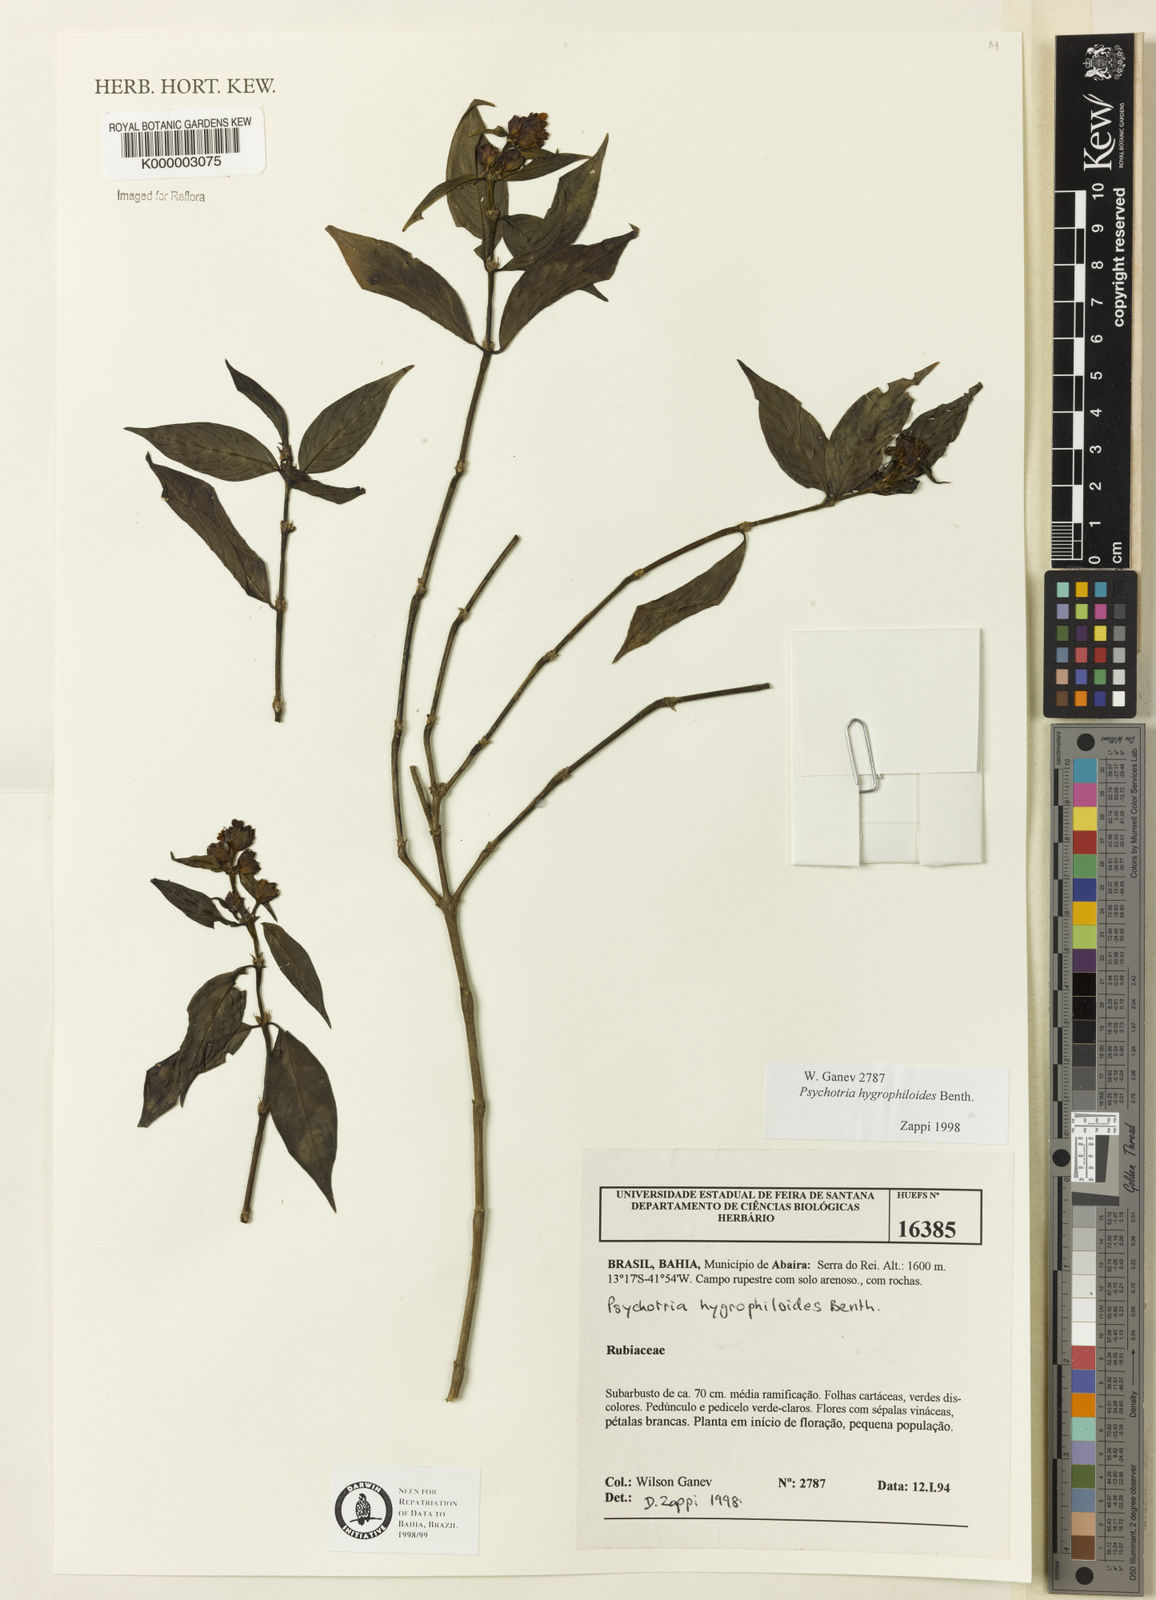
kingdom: Plantae
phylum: Tracheophyta
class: Magnoliopsida
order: Gentianales
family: Rubiaceae
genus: Psychotria
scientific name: Psychotria stachyoides
